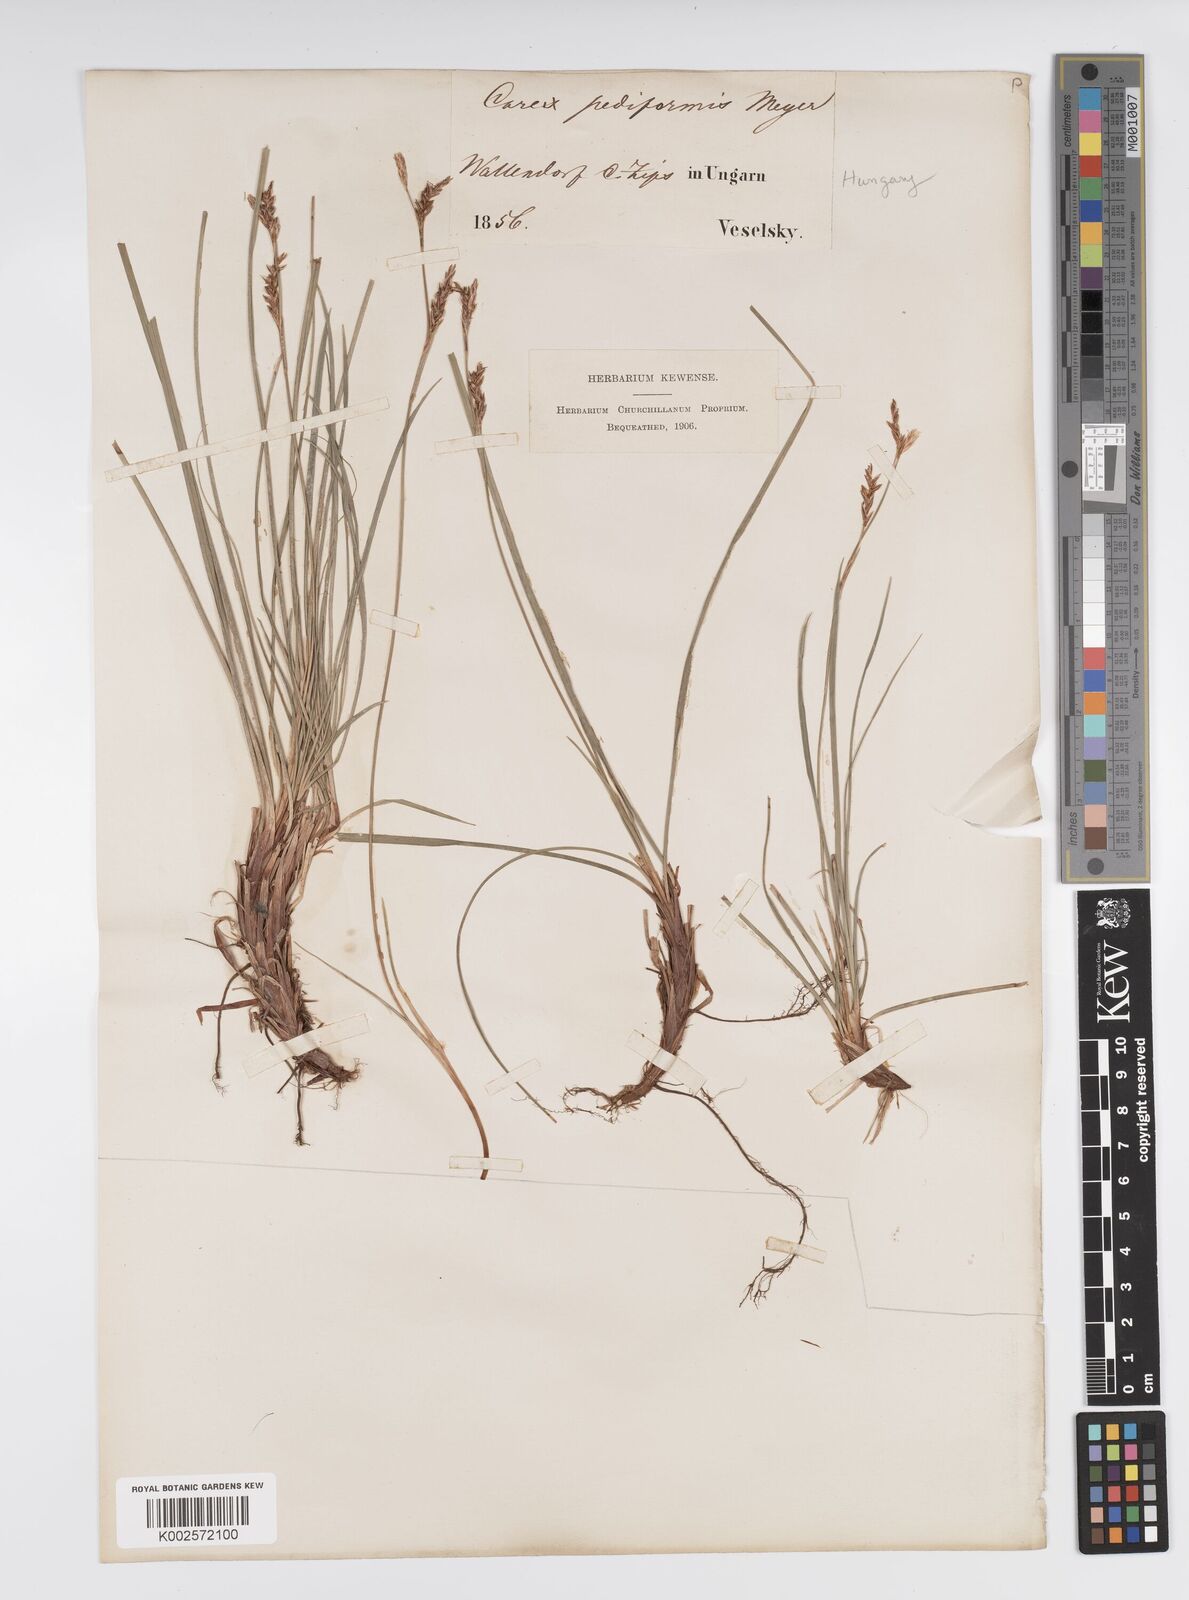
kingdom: Plantae
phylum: Tracheophyta
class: Liliopsida
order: Poales
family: Cyperaceae
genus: Carex
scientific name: Carex pediformis
